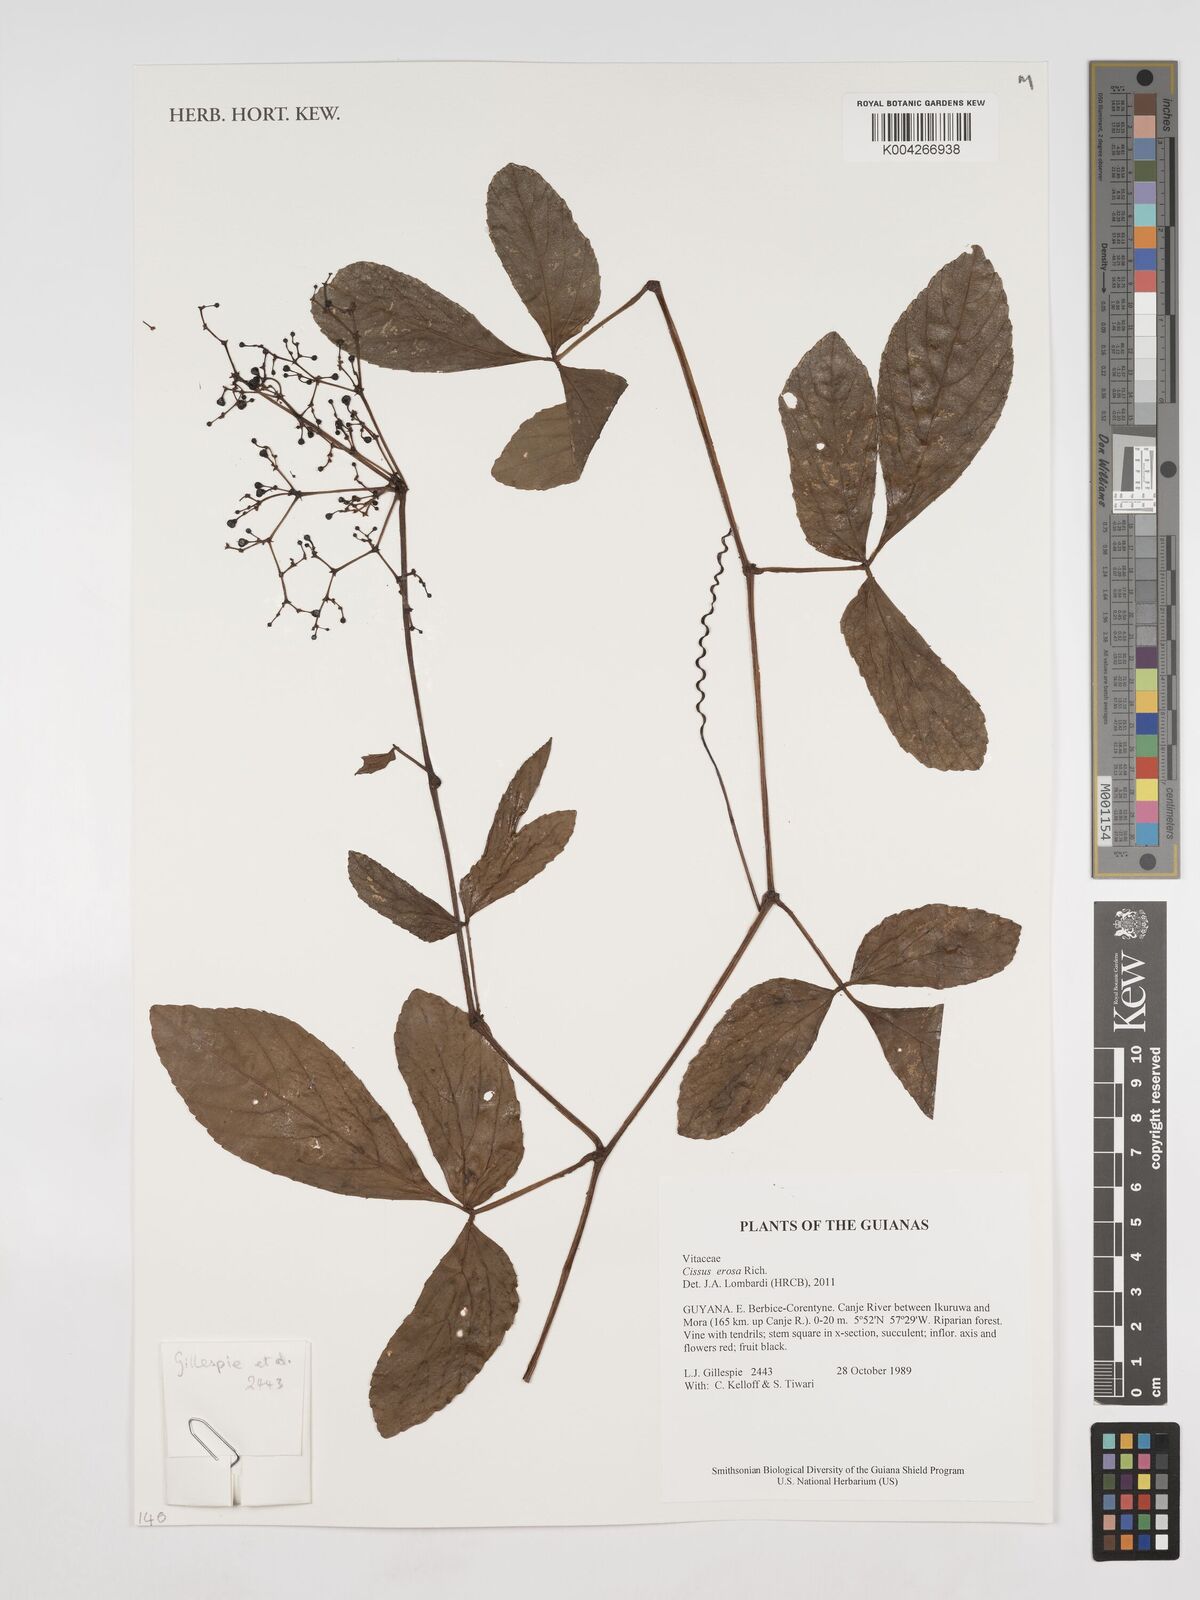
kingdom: Plantae
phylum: Tracheophyta
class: Magnoliopsida
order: Vitales
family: Vitaceae
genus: Cissus
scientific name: Cissus erosa
